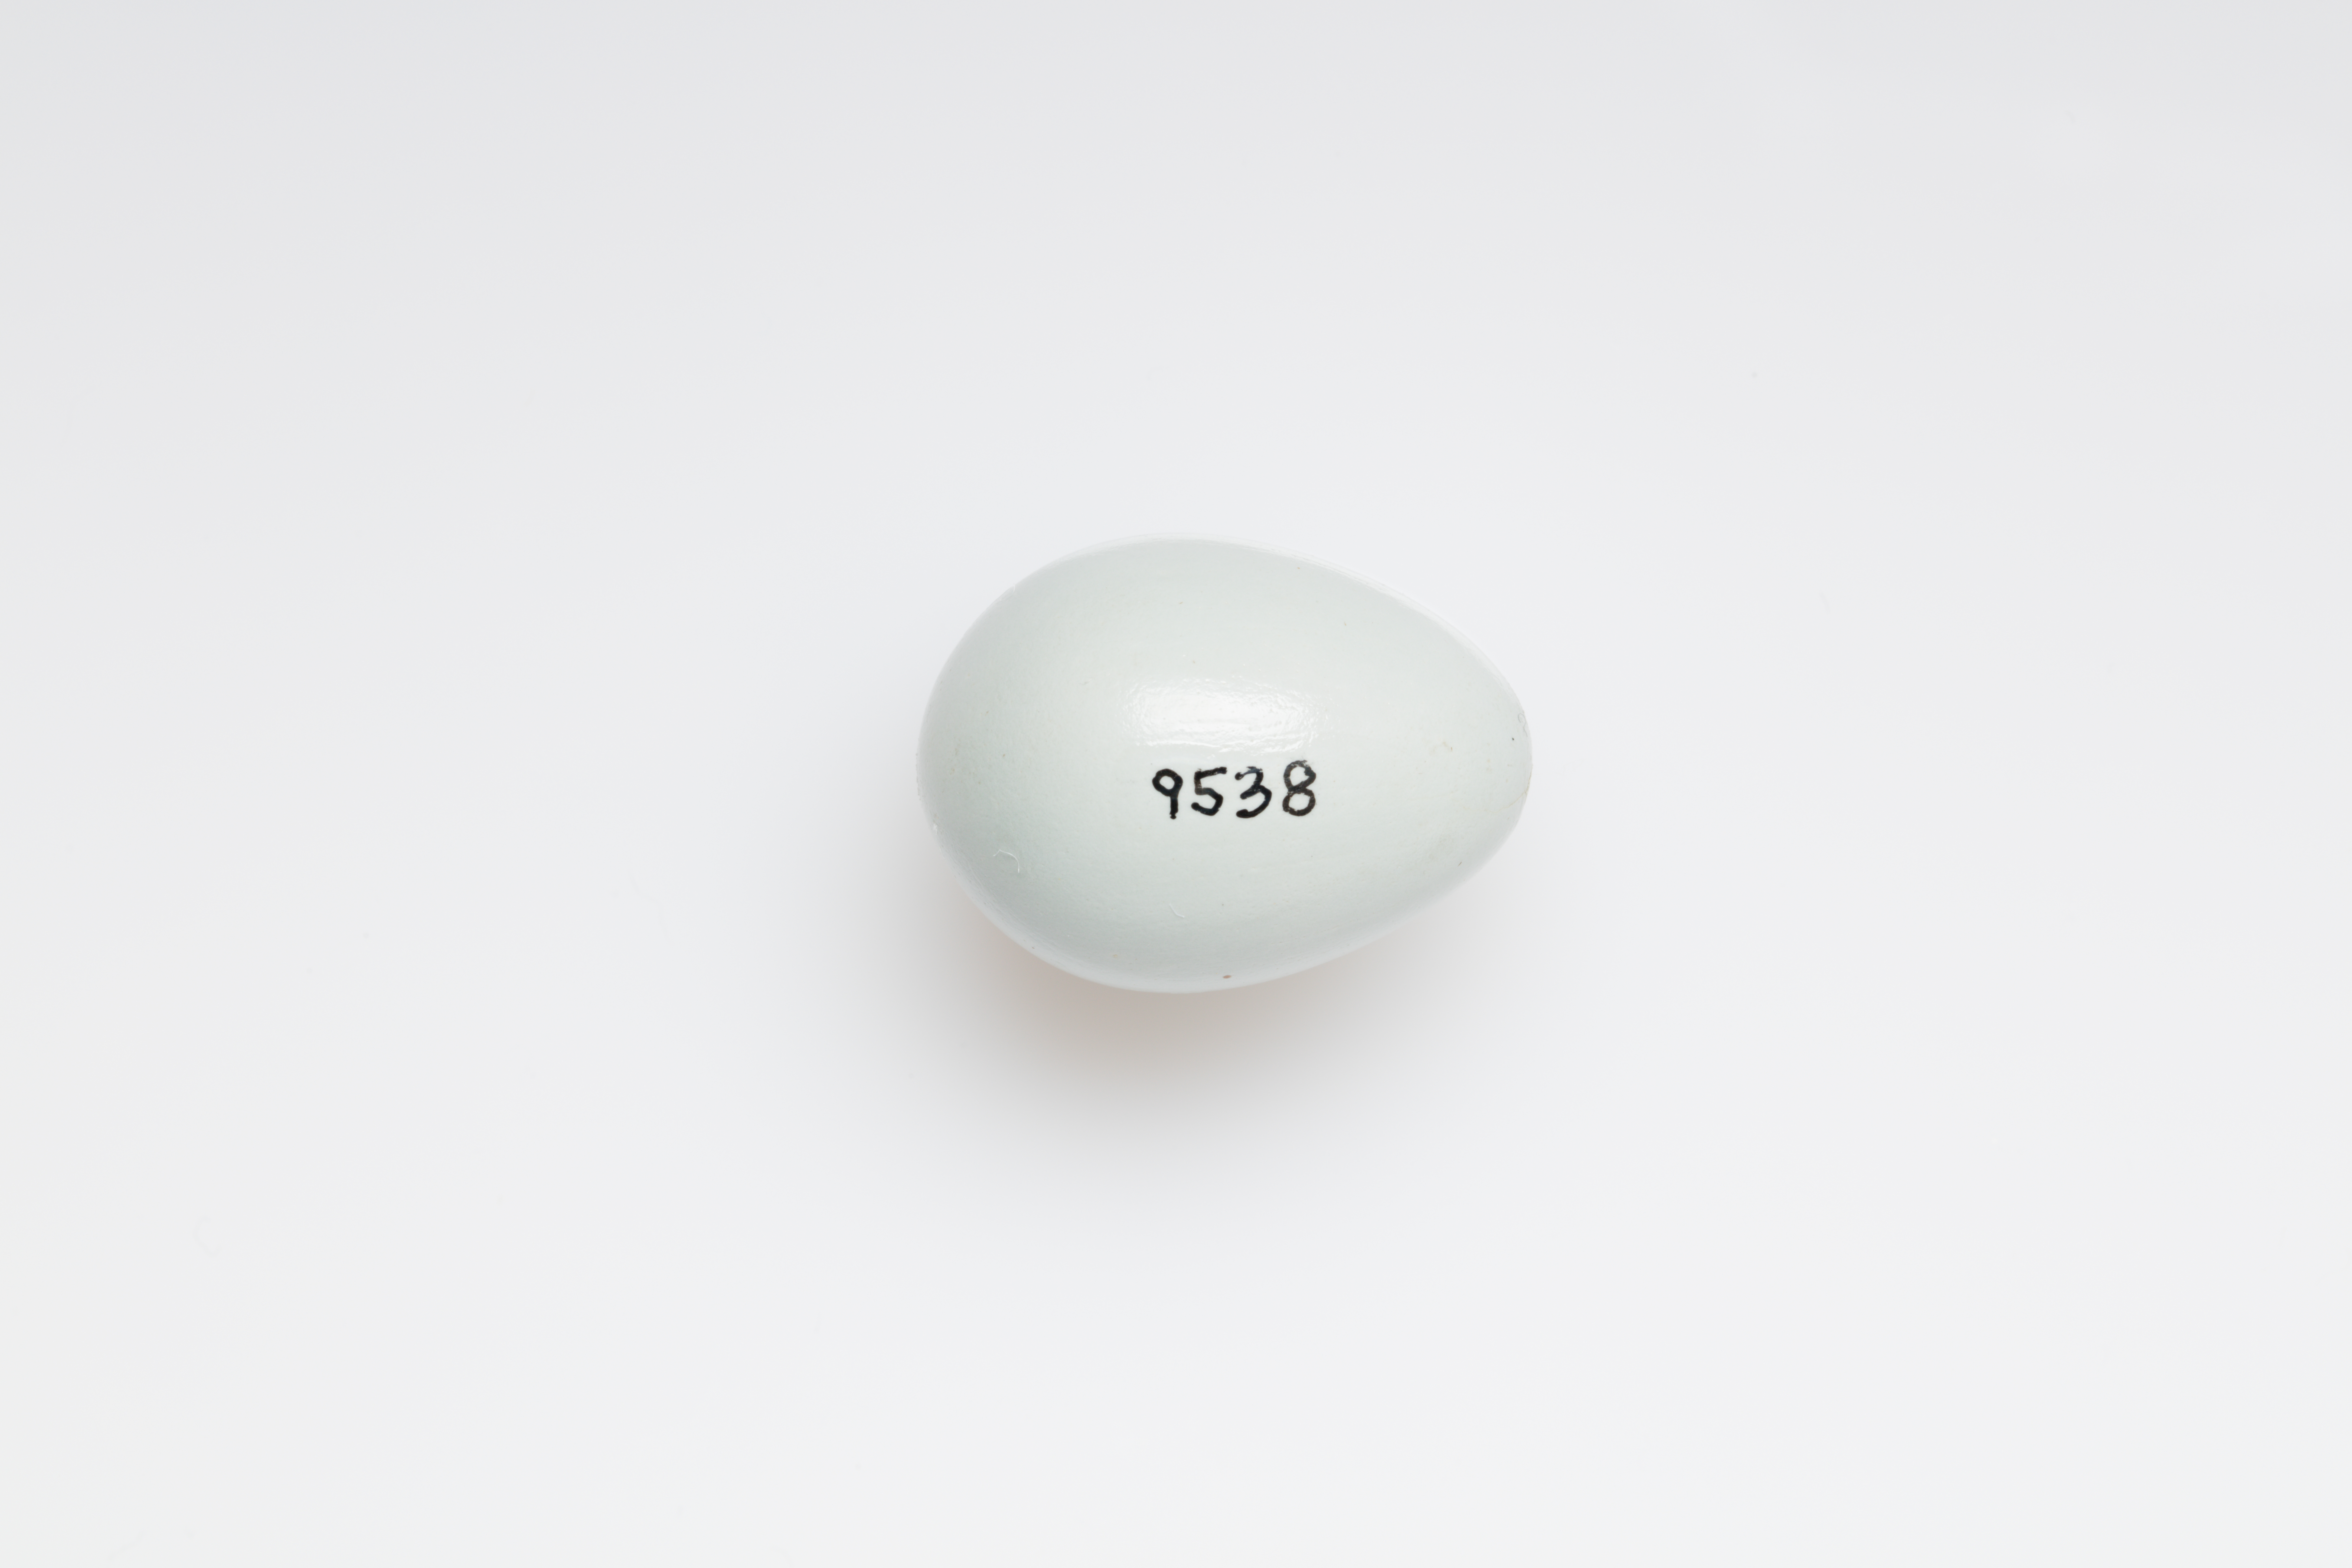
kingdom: Animalia
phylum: Chordata
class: Aves
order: Passeriformes
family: Sturnidae
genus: Sturnus
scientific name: Sturnus vulgaris
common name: Common starling
